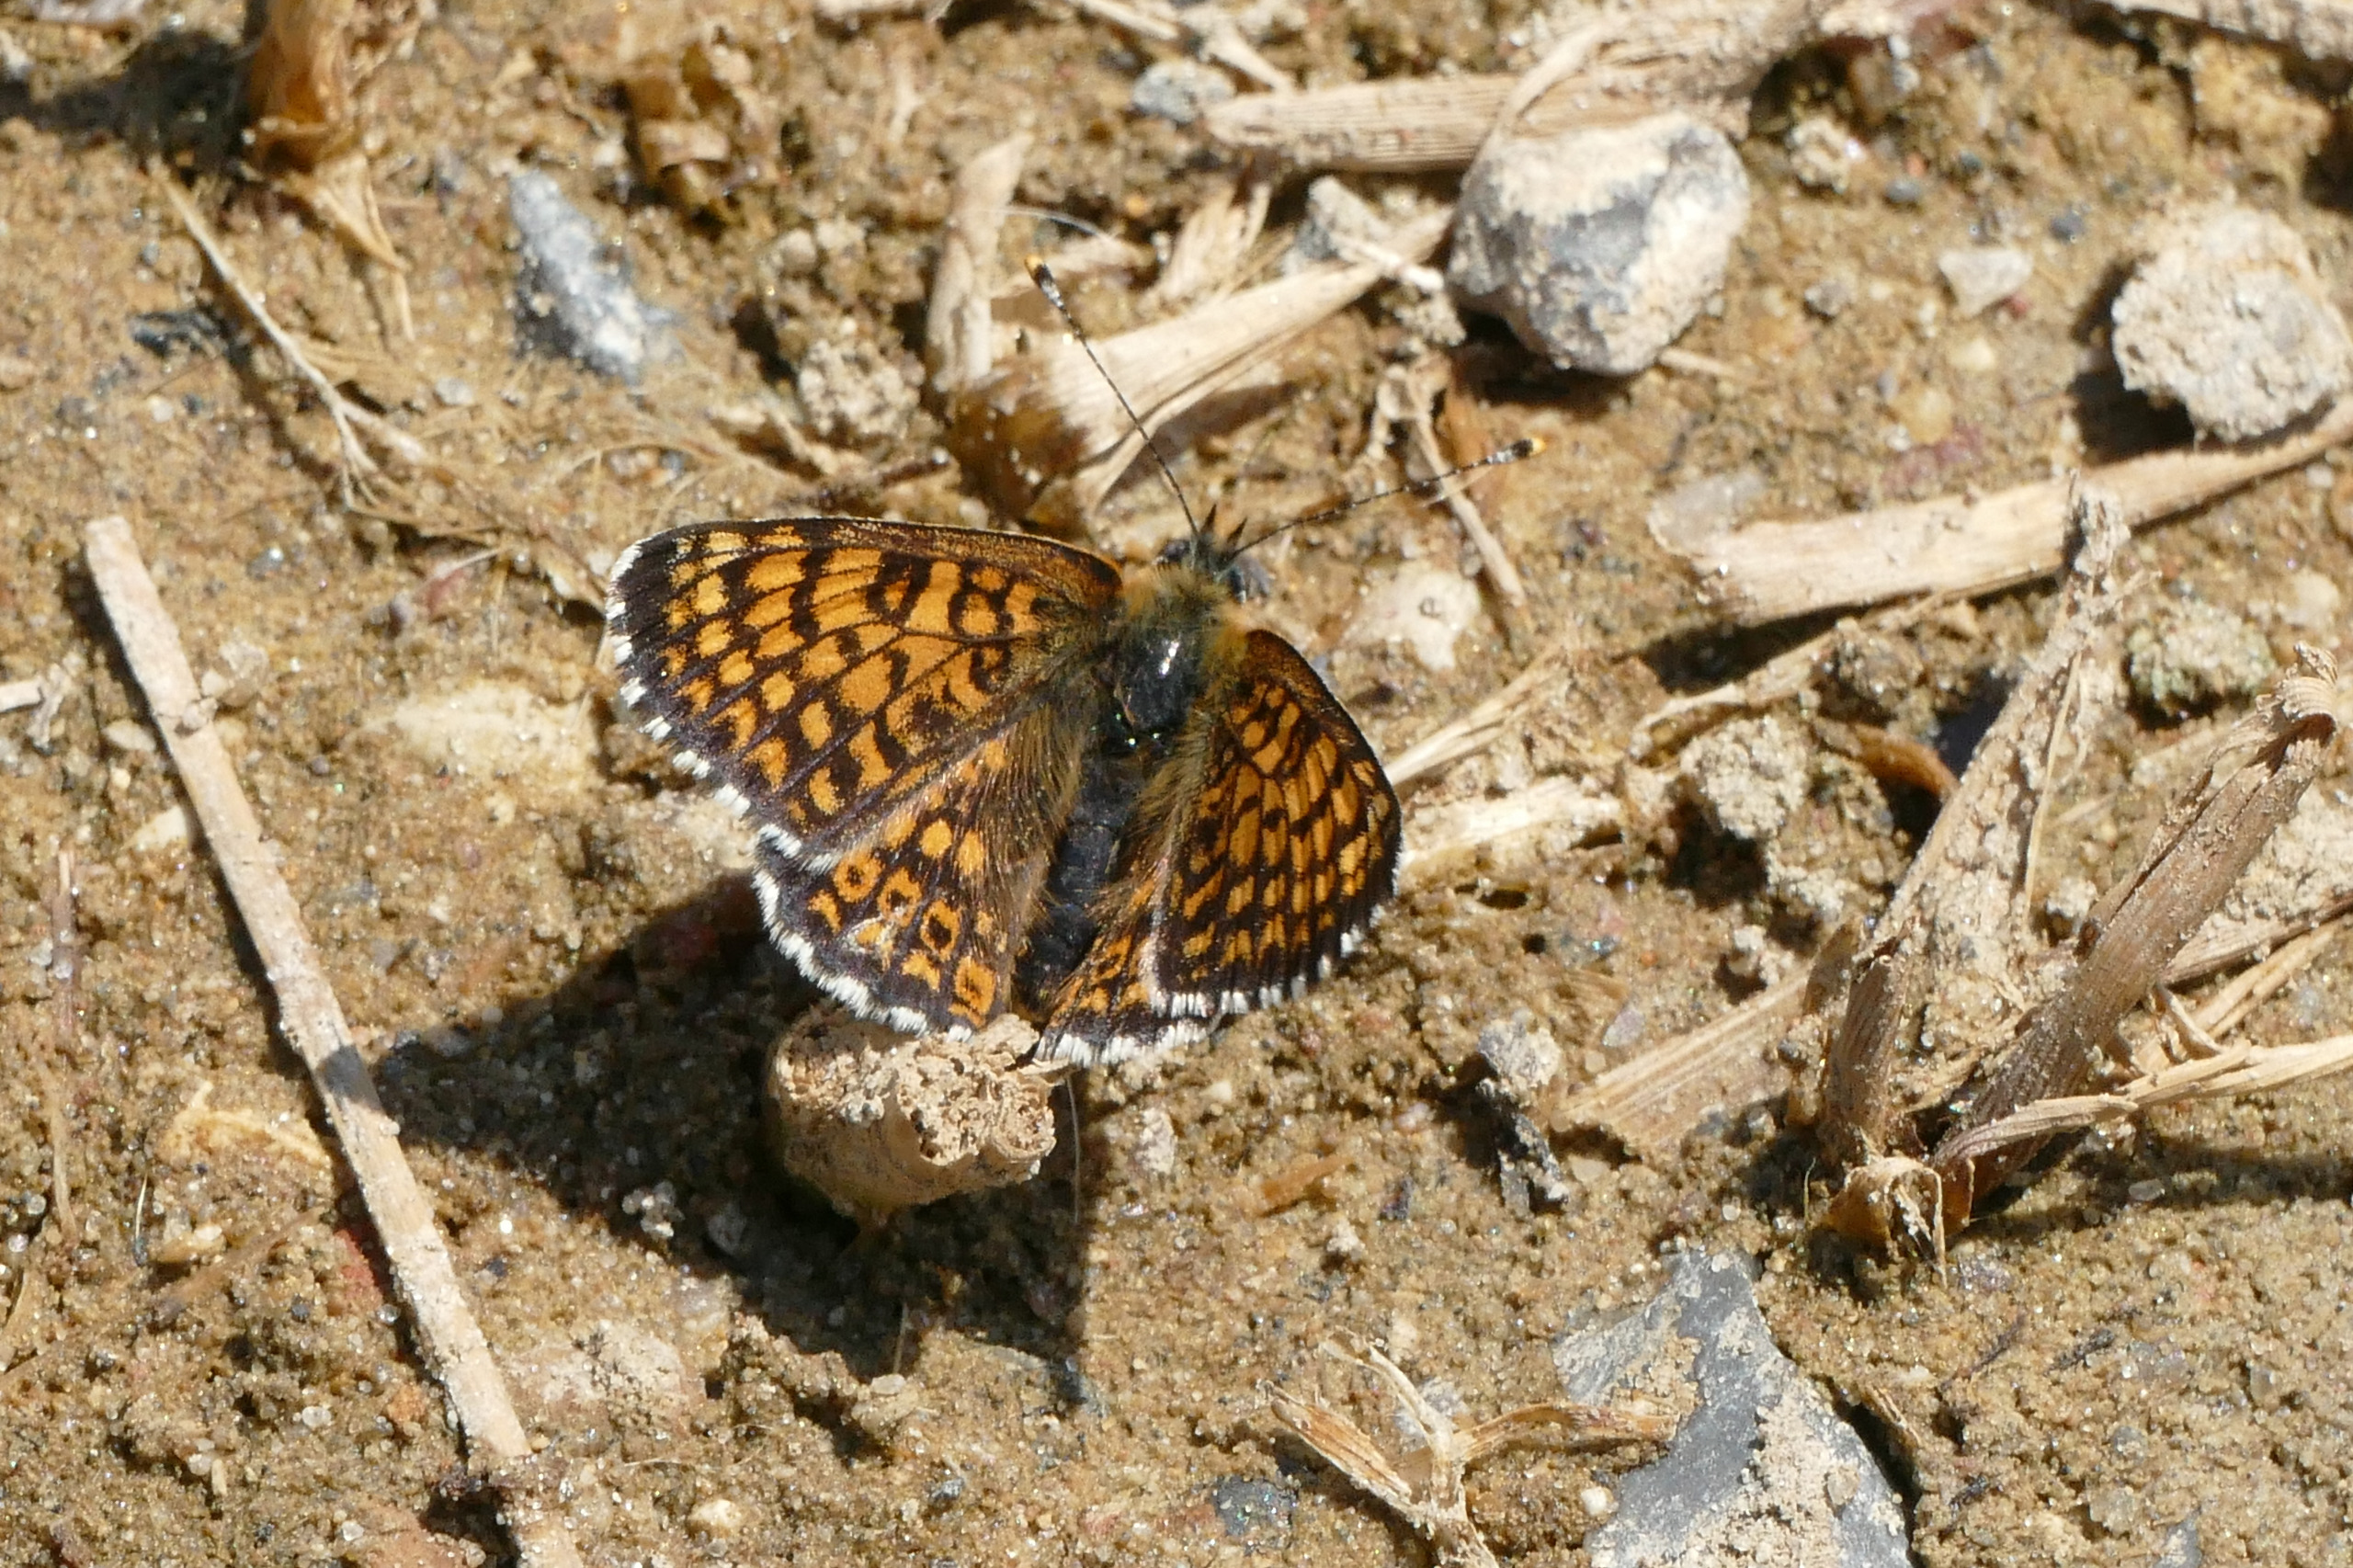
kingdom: Animalia
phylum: Arthropoda
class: Insecta
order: Lepidoptera
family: Nymphalidae
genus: Melitaea
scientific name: Melitaea cinxia
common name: Okkergul pletvinge
